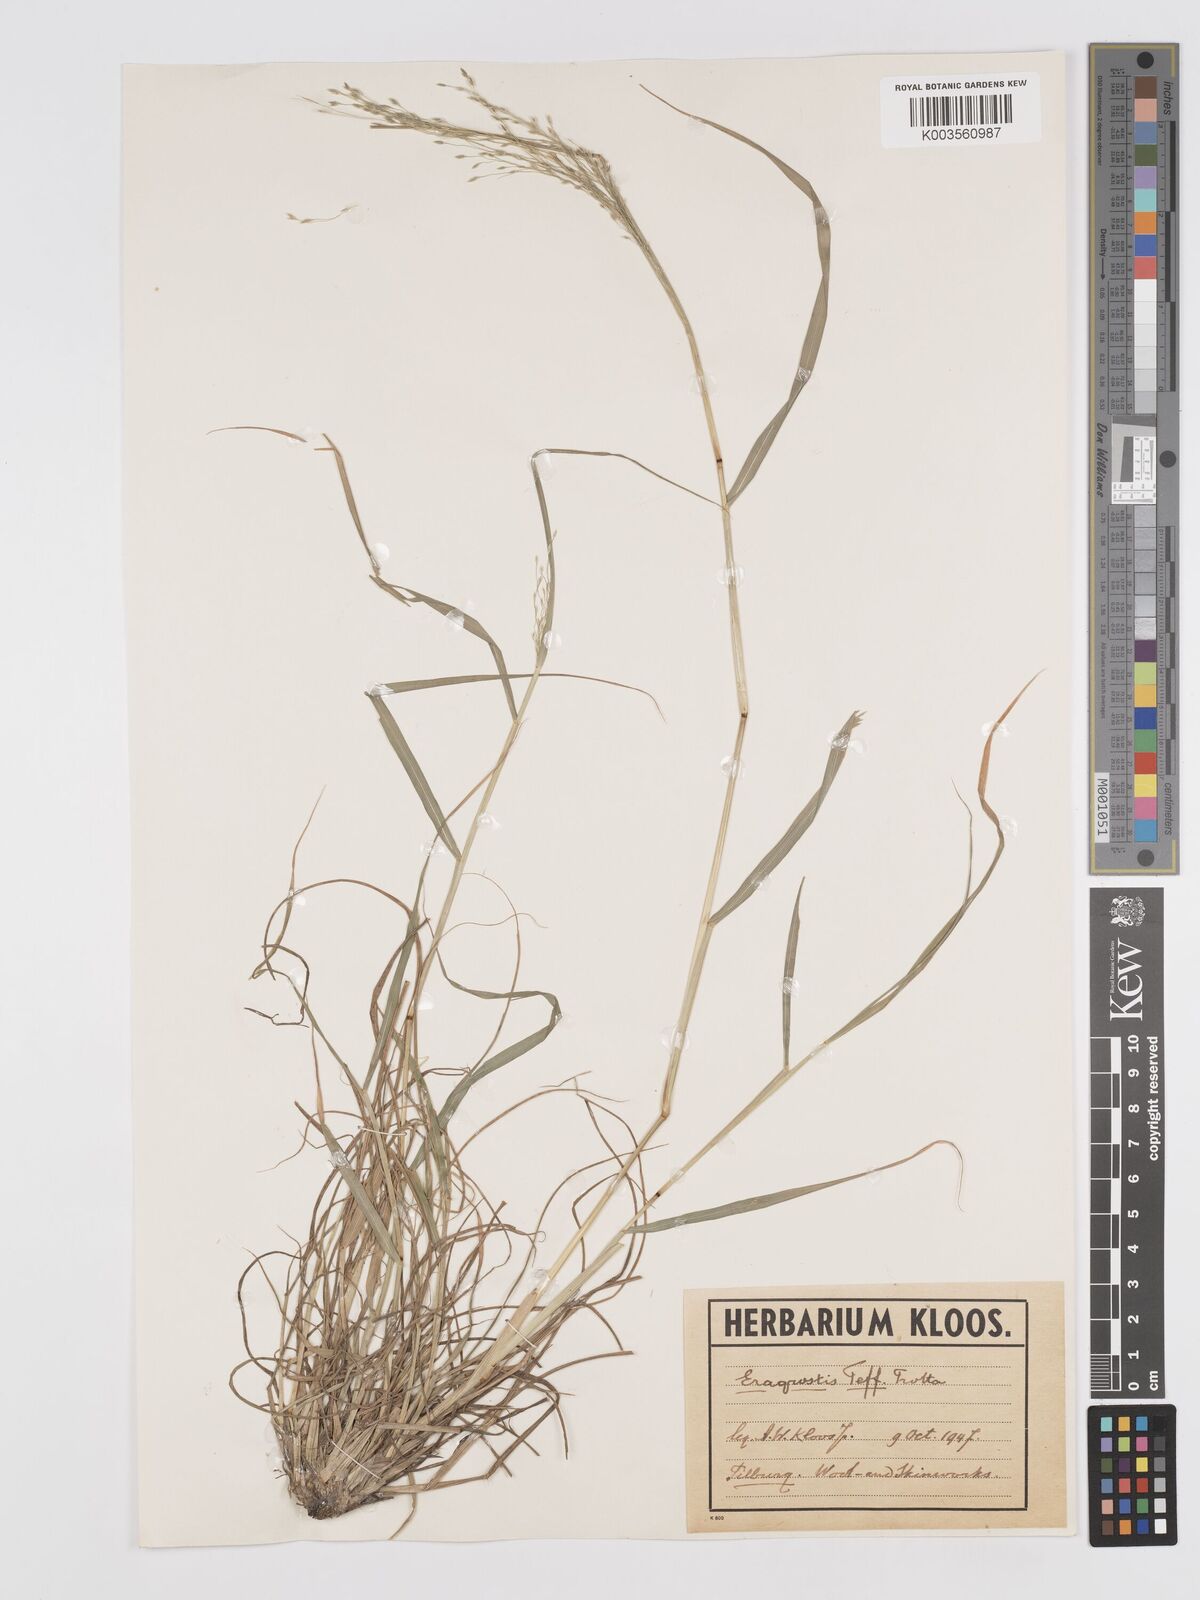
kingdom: Plantae
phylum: Tracheophyta
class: Liliopsida
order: Poales
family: Poaceae
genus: Eragrostis
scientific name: Eragrostis tef
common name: Teff
